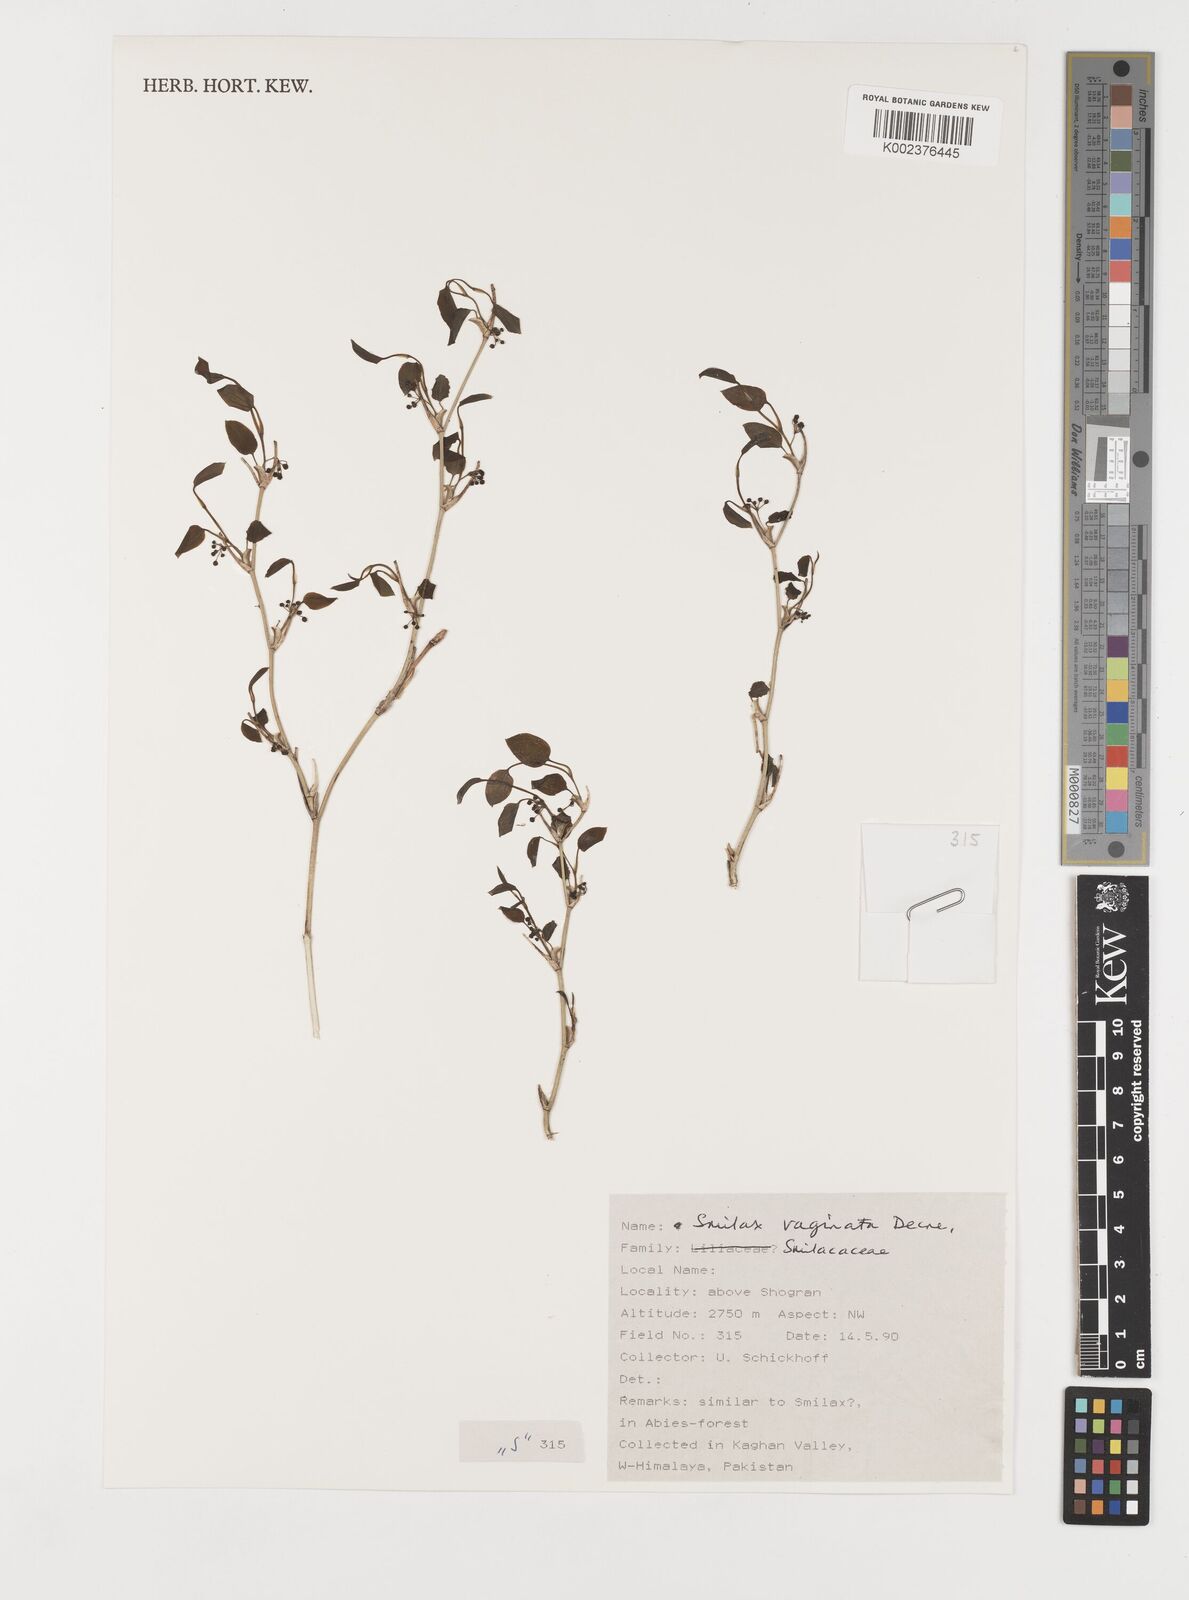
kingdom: Plantae
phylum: Tracheophyta
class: Liliopsida
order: Liliales
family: Smilacaceae
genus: Smilax
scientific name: Smilax vaginata
